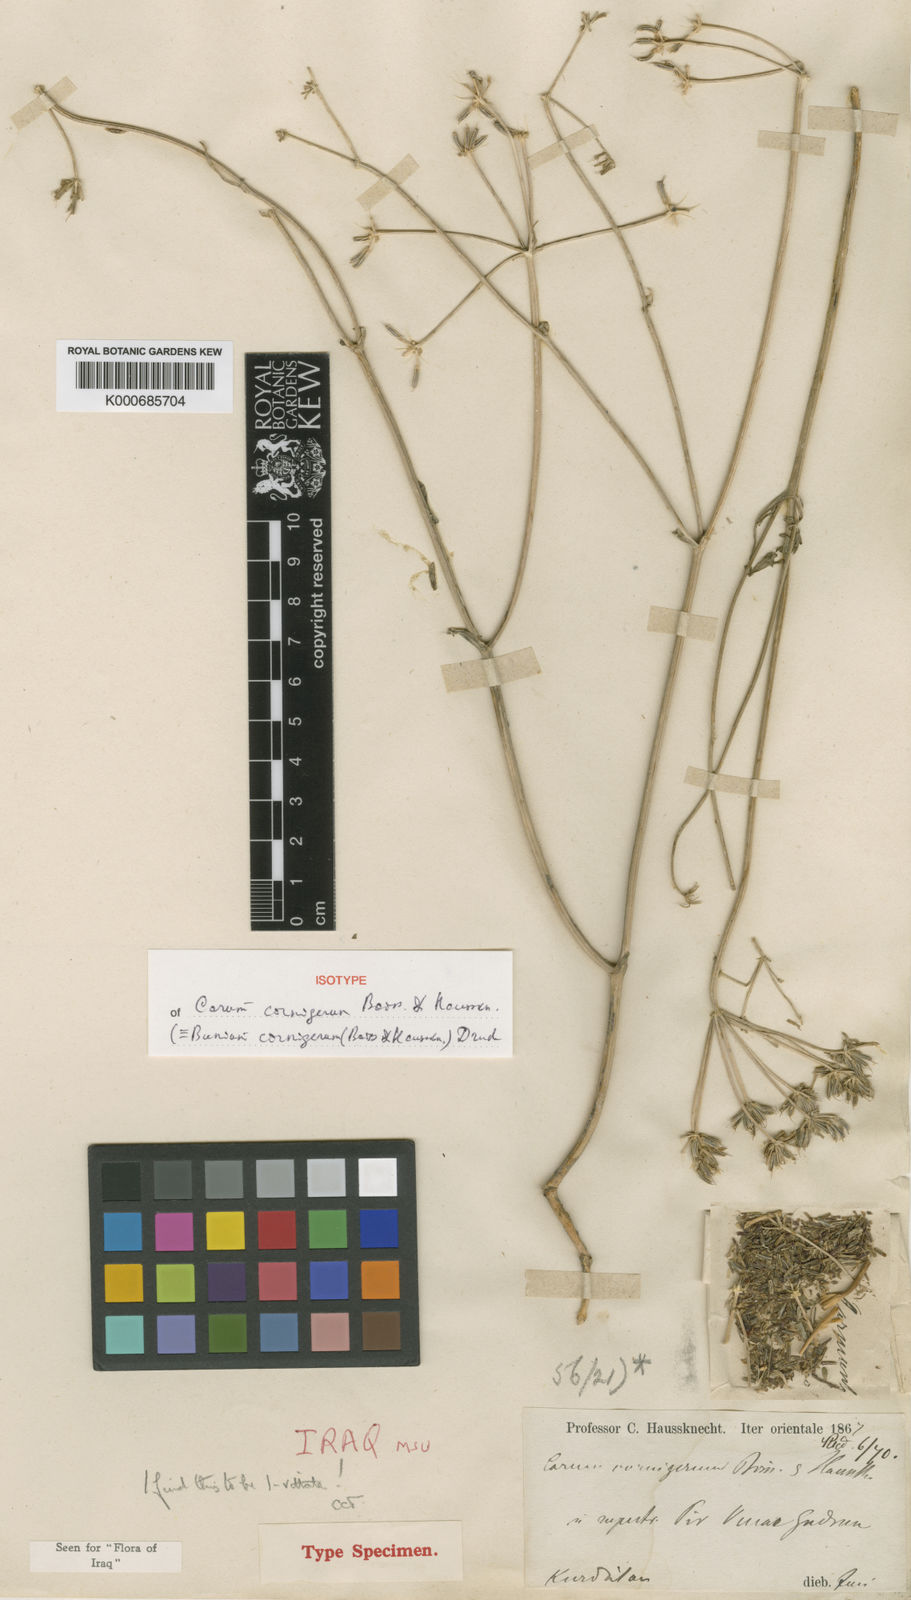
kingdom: Plantae
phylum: Tracheophyta
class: Magnoliopsida
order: Apiales
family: Apiaceae
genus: Bunium
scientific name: Bunium cornigerum
